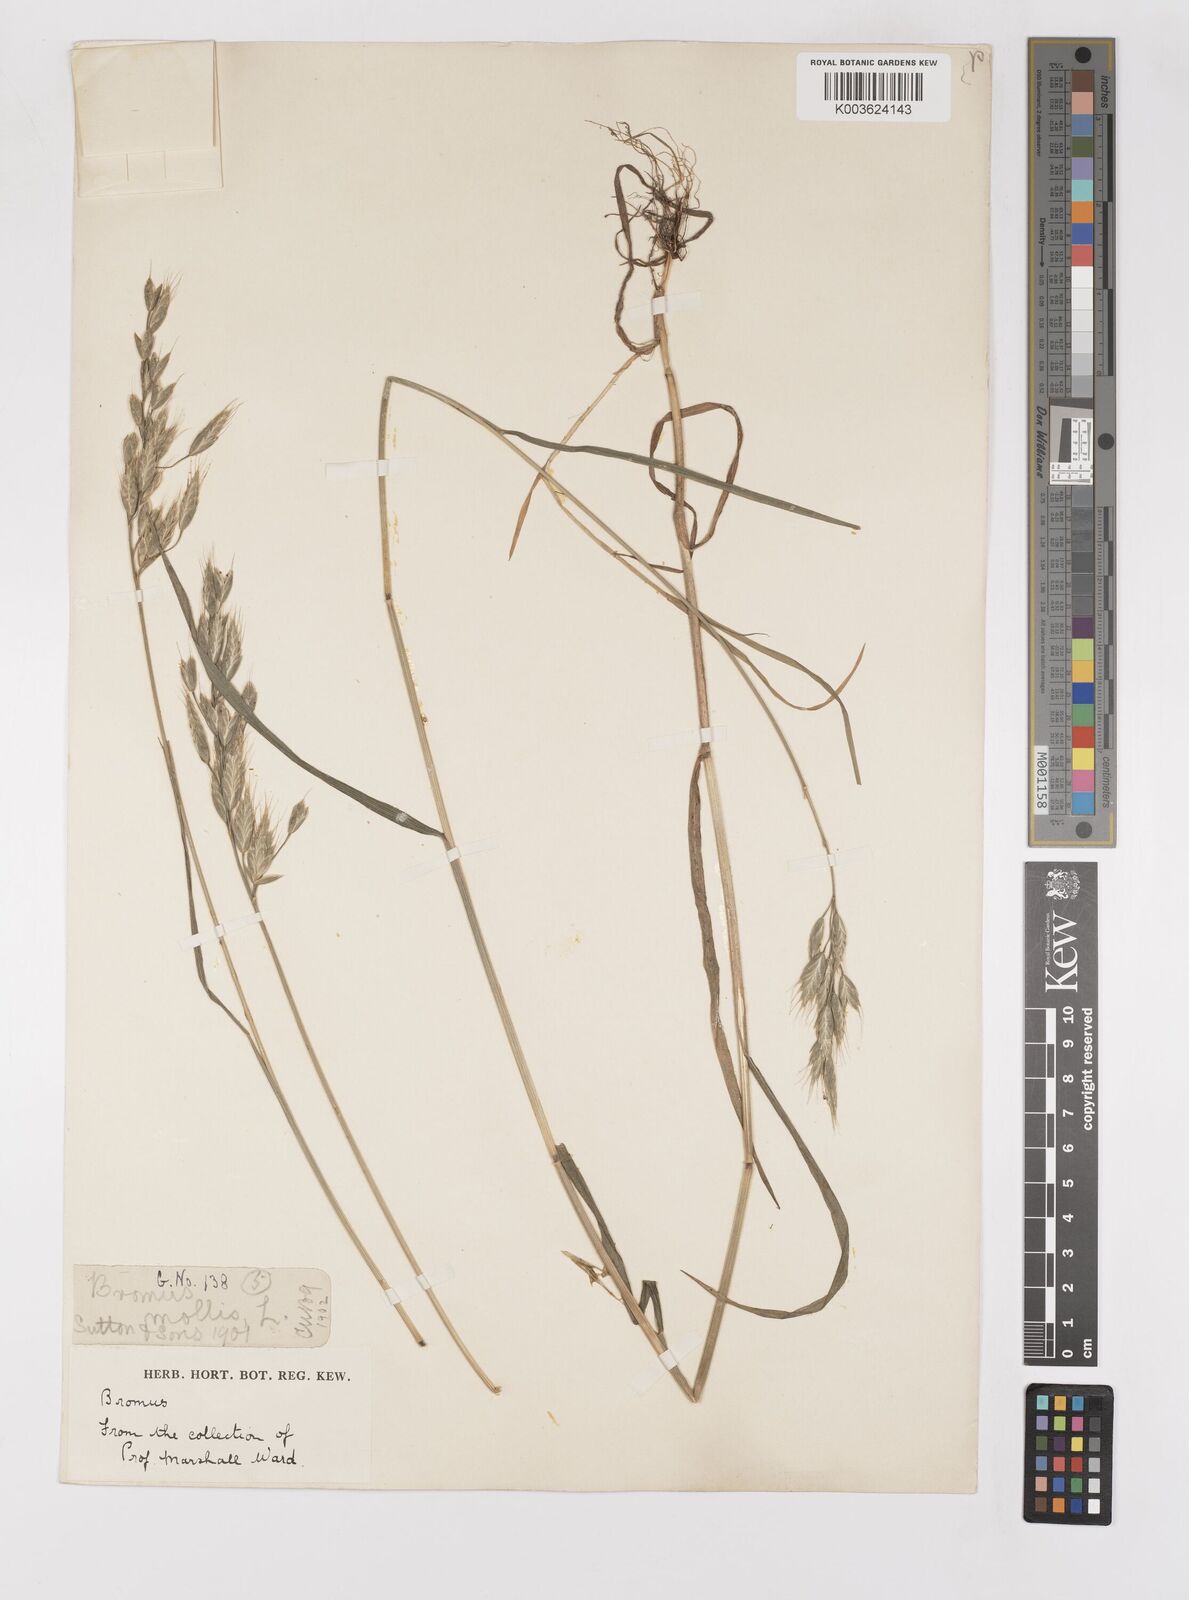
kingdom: Plantae
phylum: Tracheophyta
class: Liliopsida
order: Poales
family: Poaceae
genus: Bromus
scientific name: Bromus hordeaceus
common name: Soft brome
